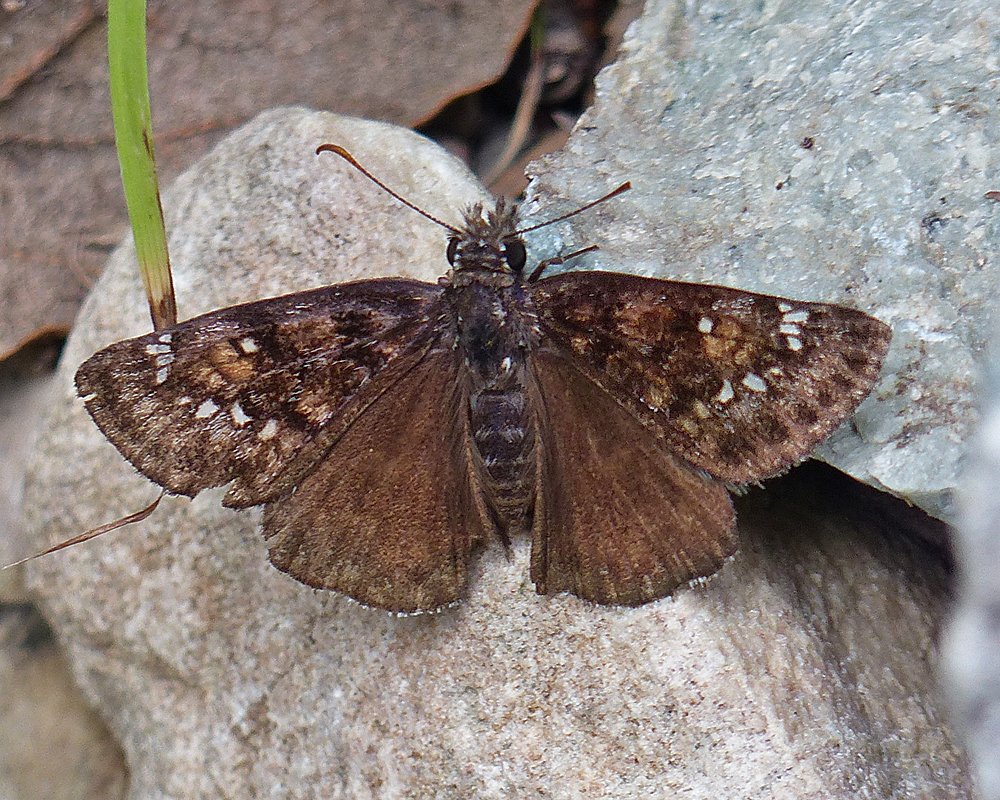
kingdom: Animalia
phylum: Arthropoda
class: Insecta
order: Lepidoptera
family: Hesperiidae
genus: Erynnis
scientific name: Erynnis meridianus
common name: Meridian Duskywing
